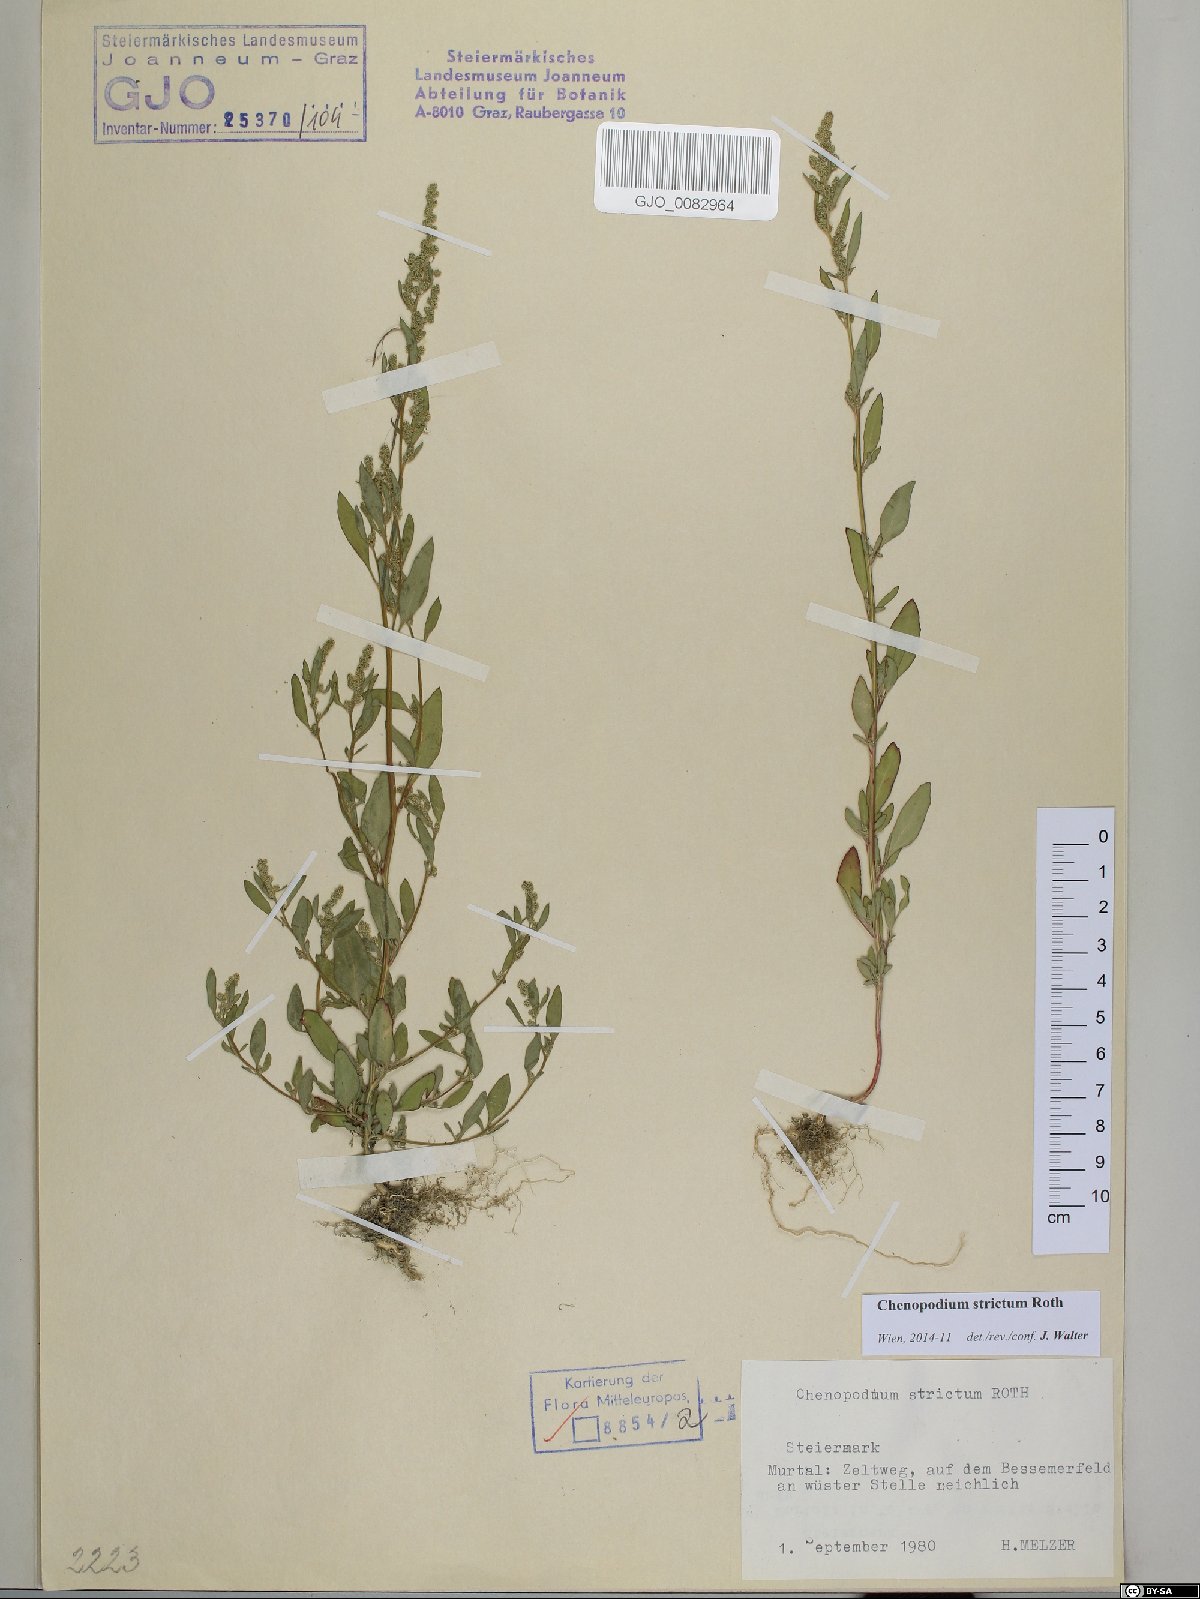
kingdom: Plantae
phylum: Tracheophyta
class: Magnoliopsida
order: Caryophyllales
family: Amaranthaceae
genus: Chenopodium
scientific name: Chenopodium album
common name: Fat-hen
